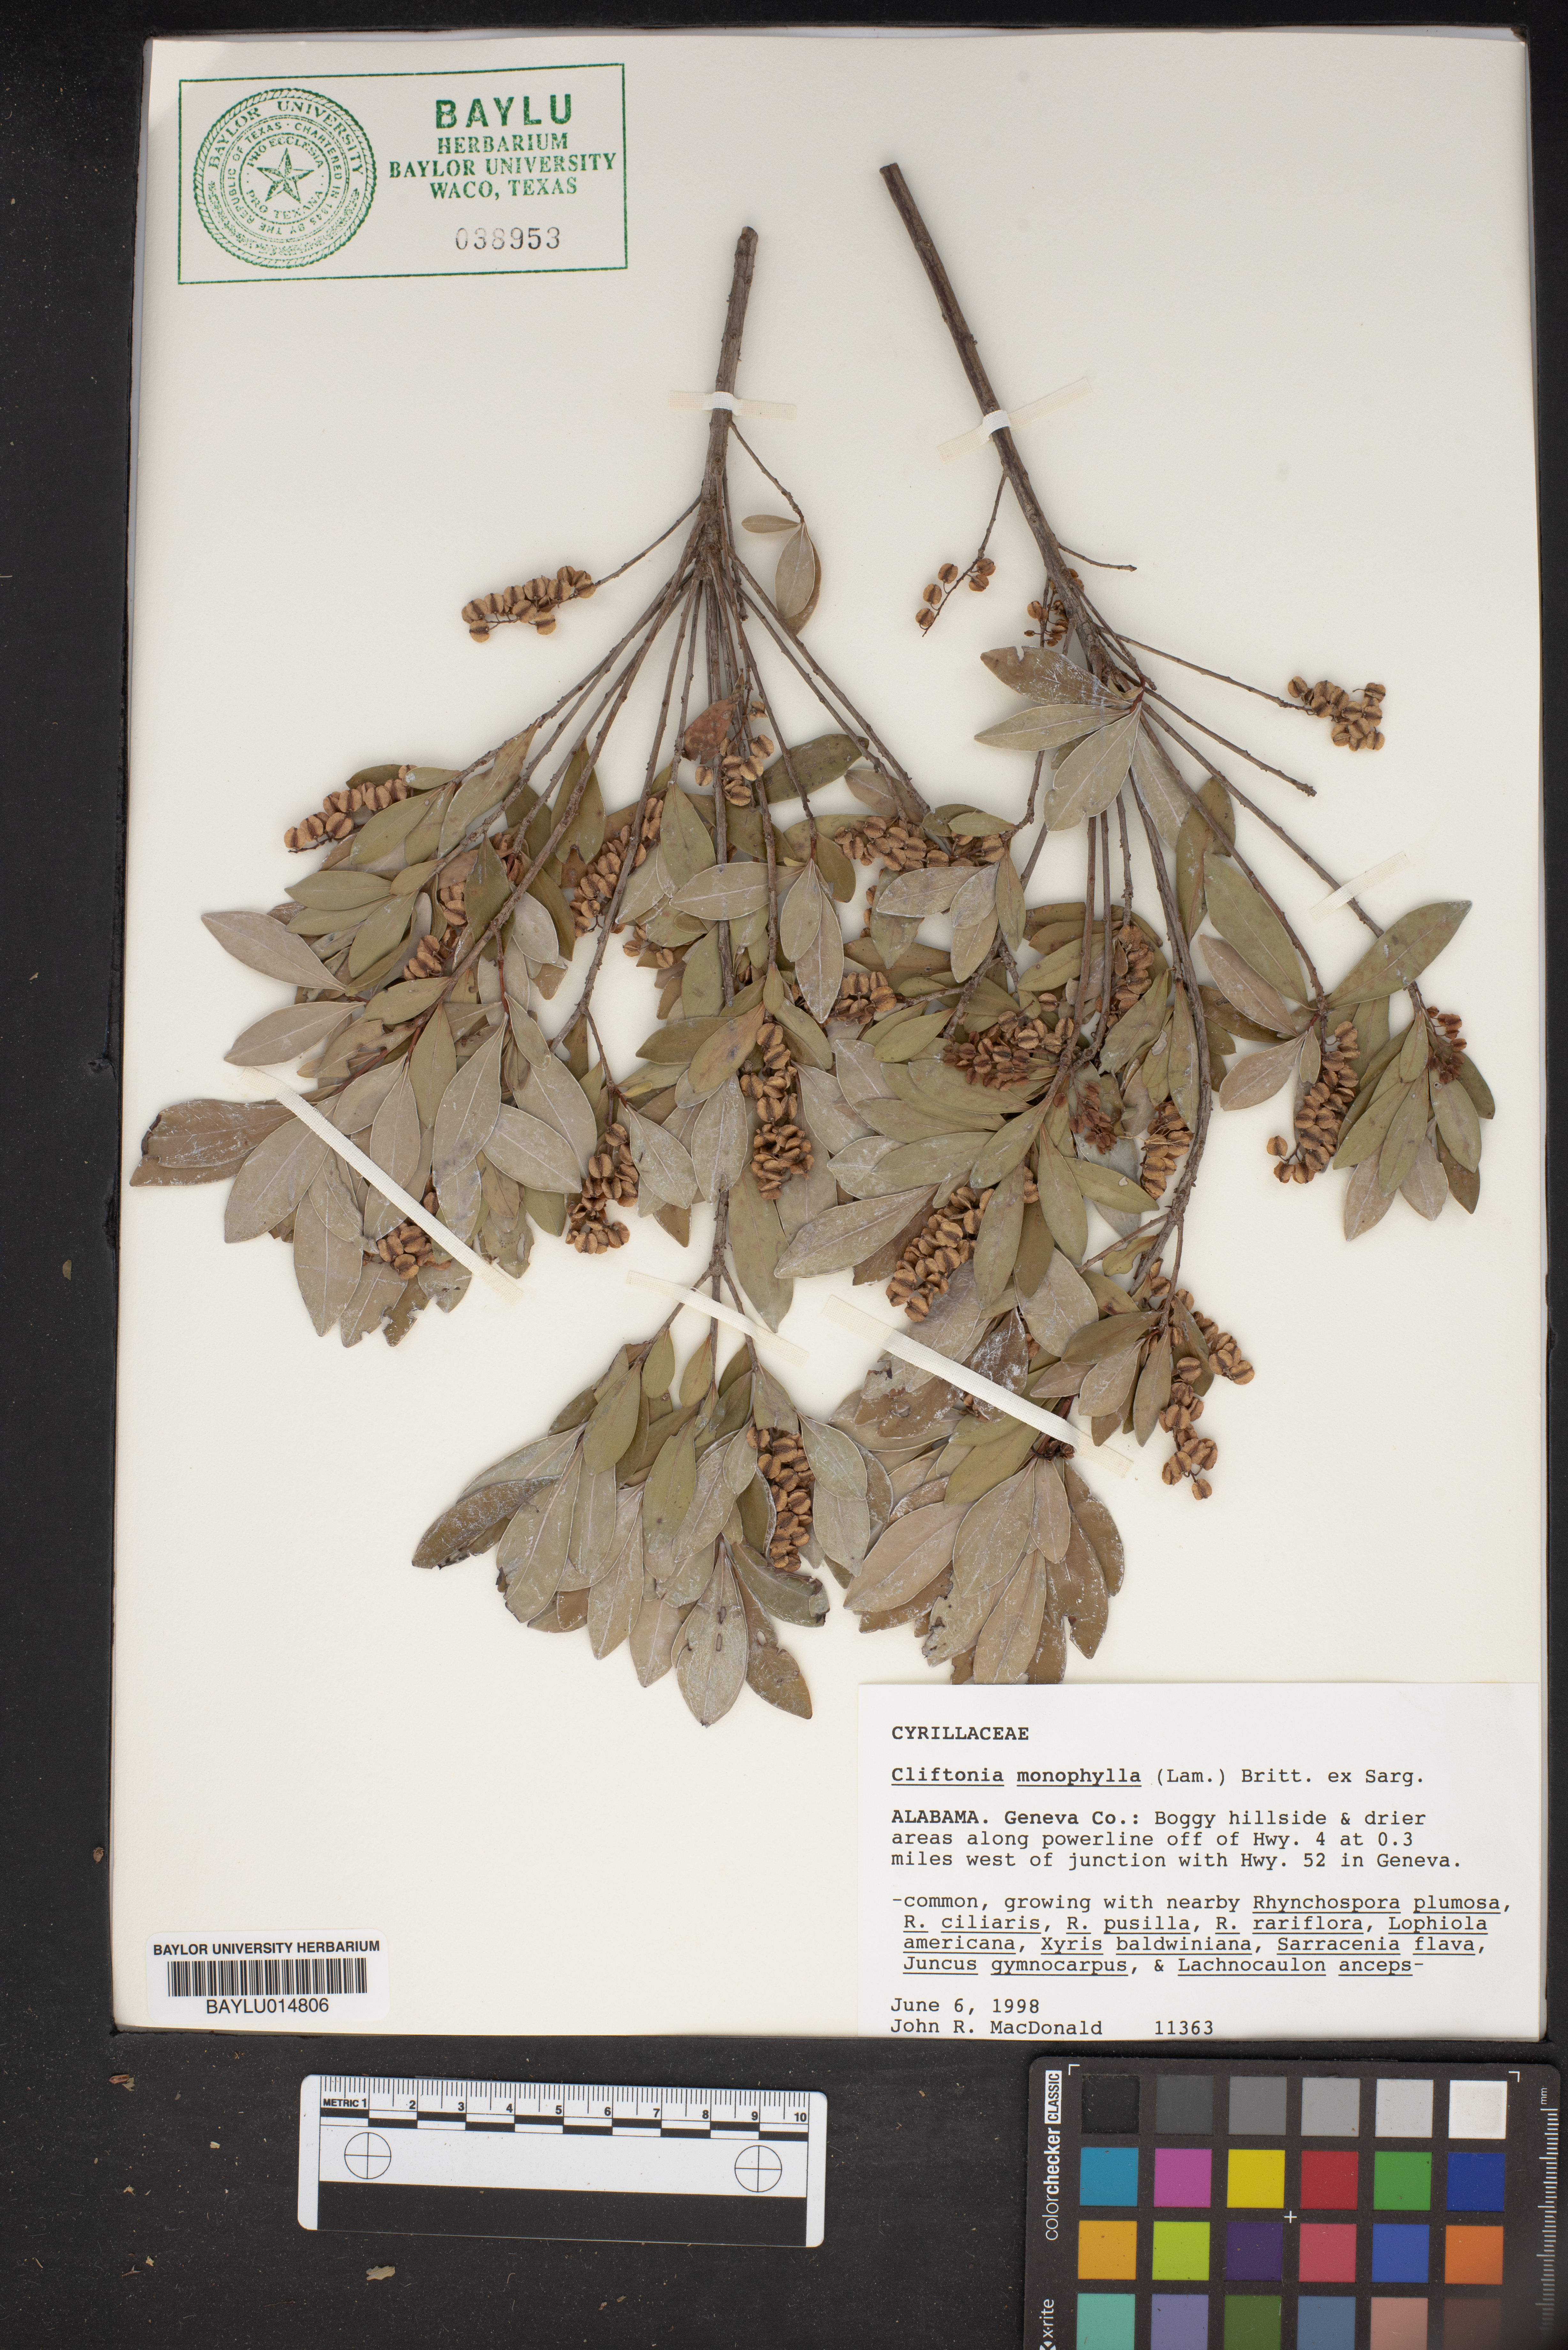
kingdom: Plantae
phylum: Tracheophyta
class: Magnoliopsida
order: Ericales
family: Cyrillaceae
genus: Cliftonia
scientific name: Cliftonia monophylla
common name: Titi
